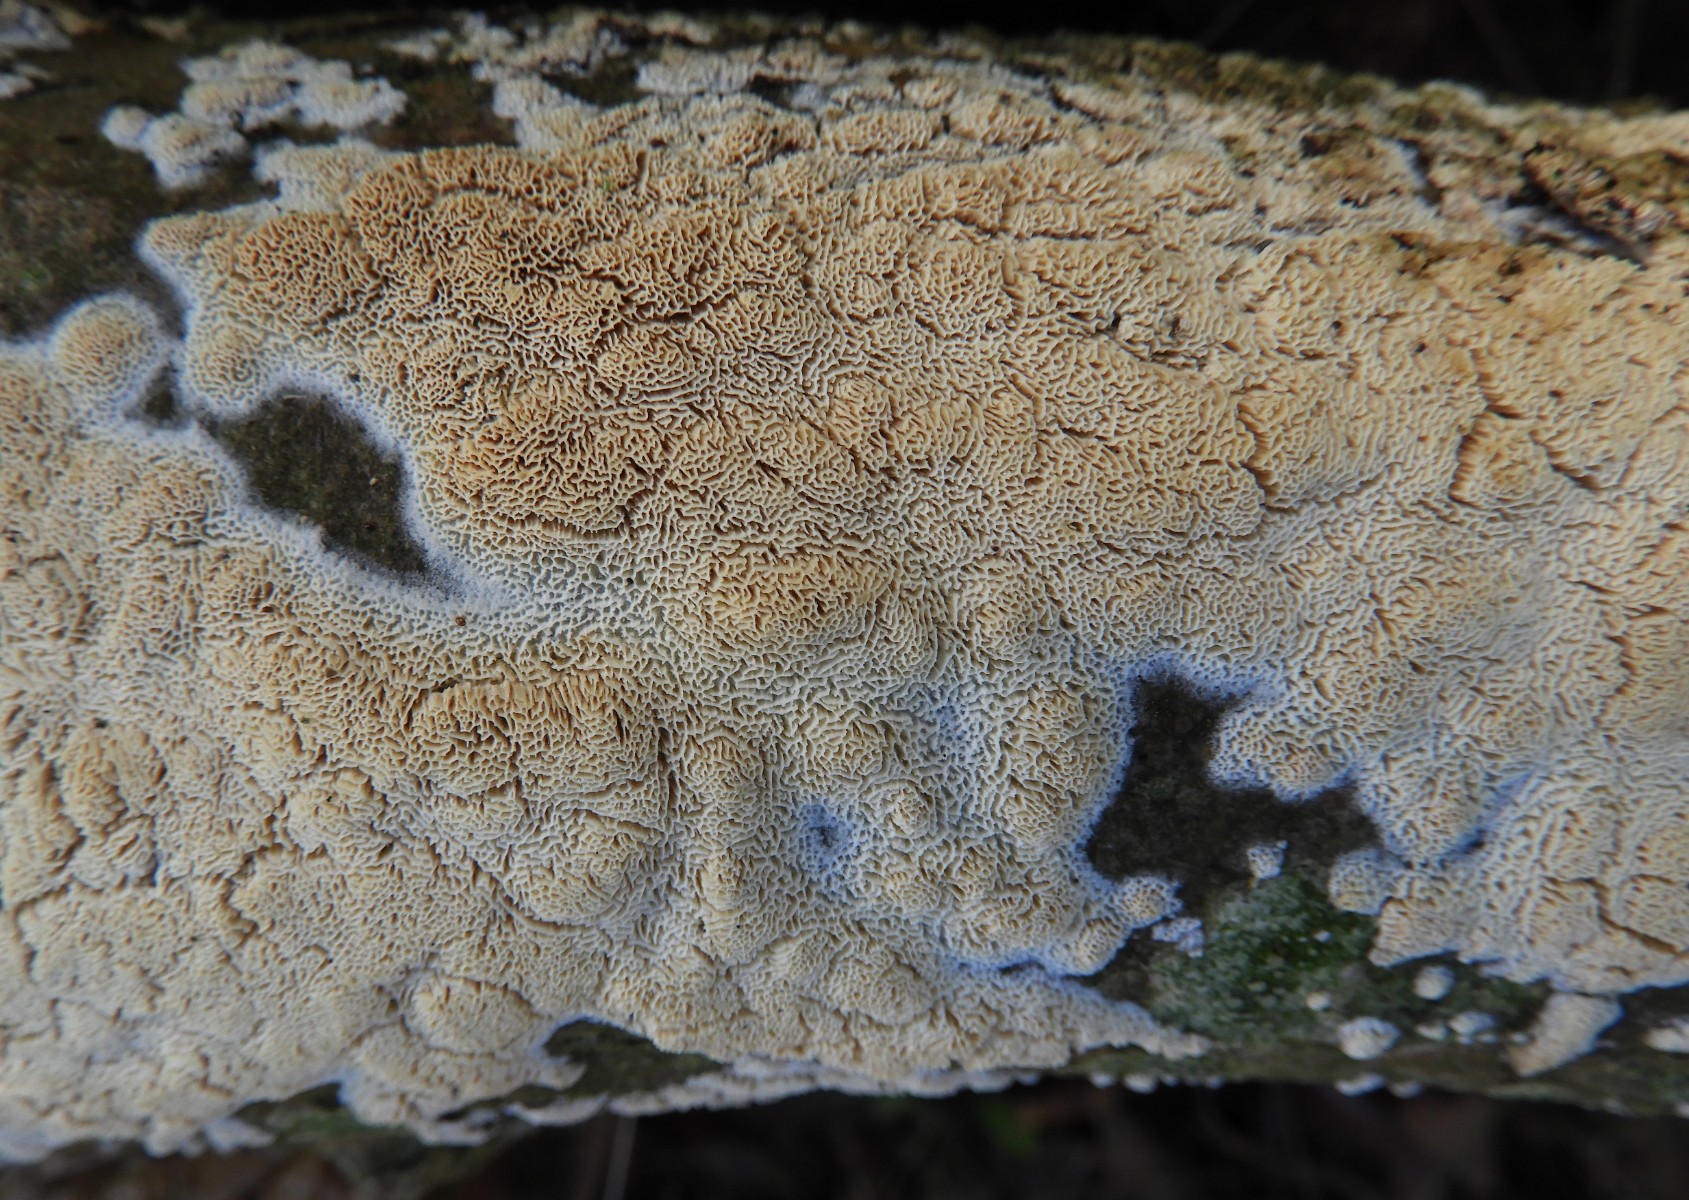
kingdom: Fungi
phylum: Basidiomycota
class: Agaricomycetes
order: Hymenochaetales
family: Schizoporaceae
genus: Xylodon
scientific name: Xylodon subtropicus
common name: labyrint-tandsvamp
